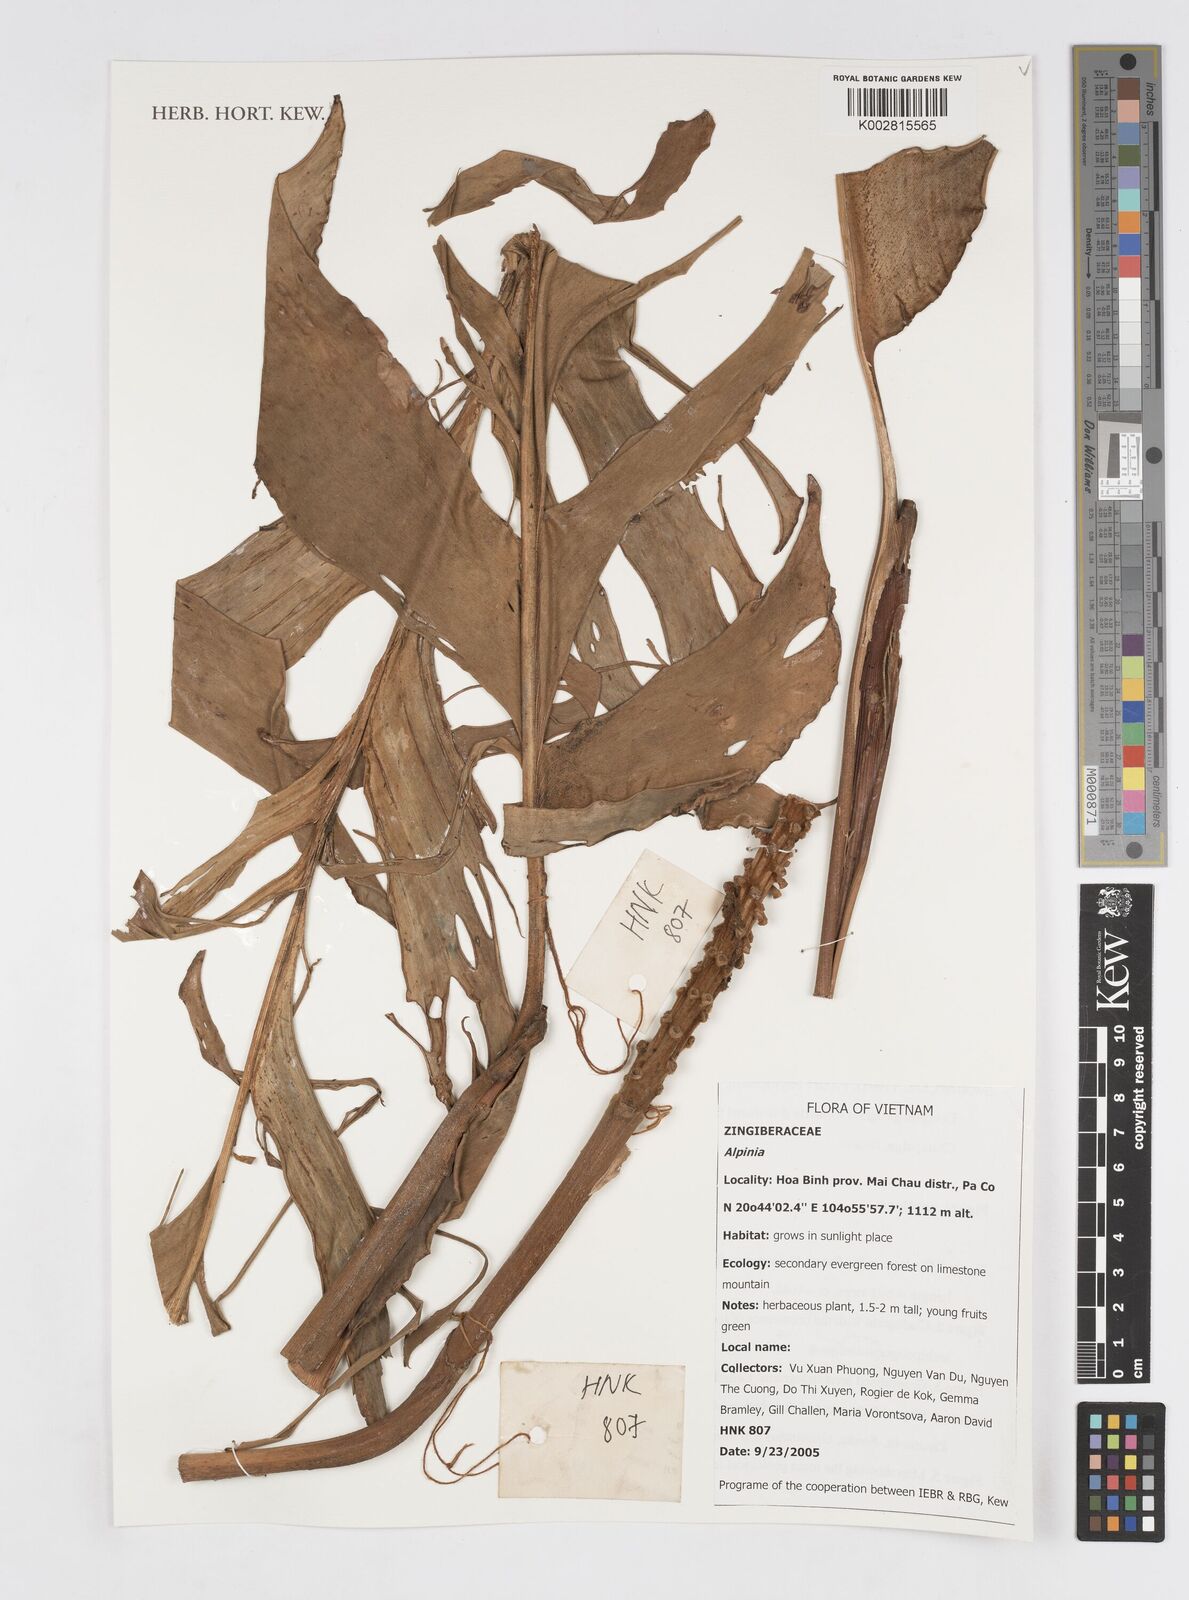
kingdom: Plantae
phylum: Tracheophyta
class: Liliopsida
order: Zingiberales
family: Zingiberaceae
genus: Alpinia
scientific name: Alpinia
